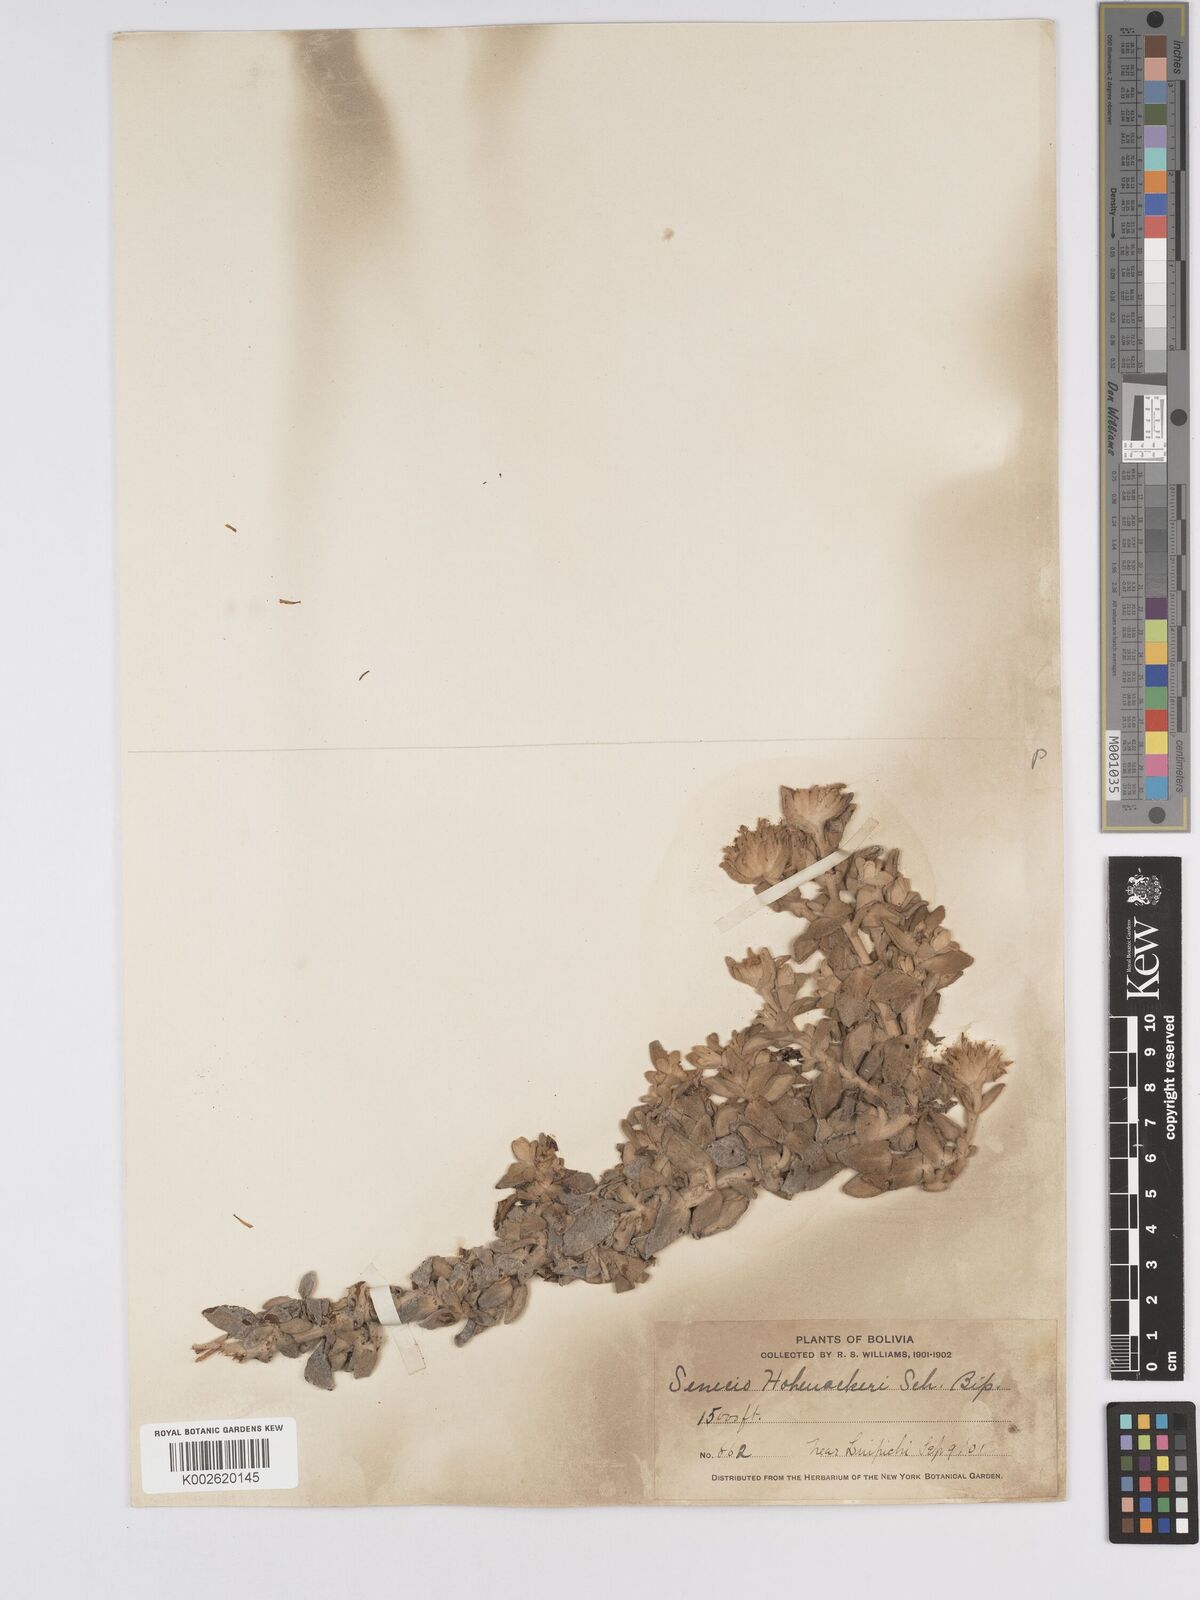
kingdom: Plantae
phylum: Tracheophyta
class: Magnoliopsida
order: Asterales
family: Asteraceae
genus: Senecio
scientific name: Senecio hohenackeri
